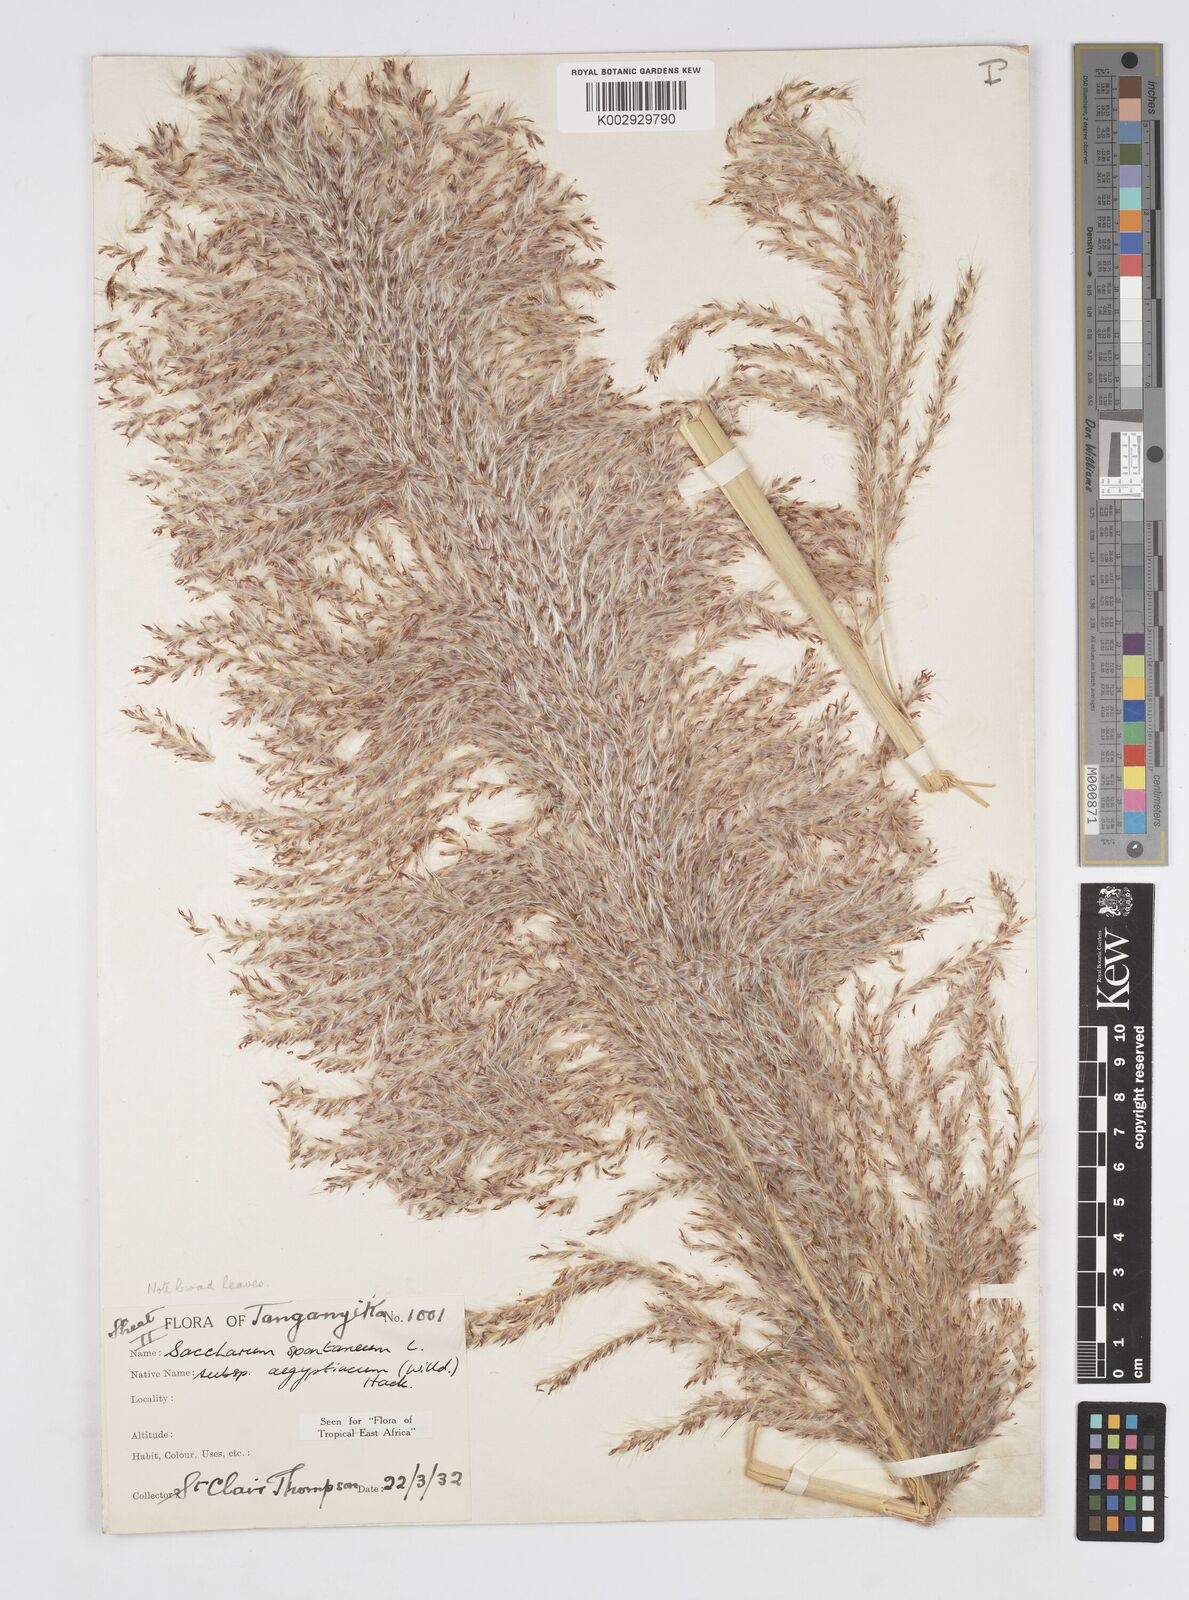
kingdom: Plantae
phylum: Tracheophyta
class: Liliopsida
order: Poales
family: Poaceae
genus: Saccharum
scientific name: Saccharum spontaneum
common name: Wild sugarcane
